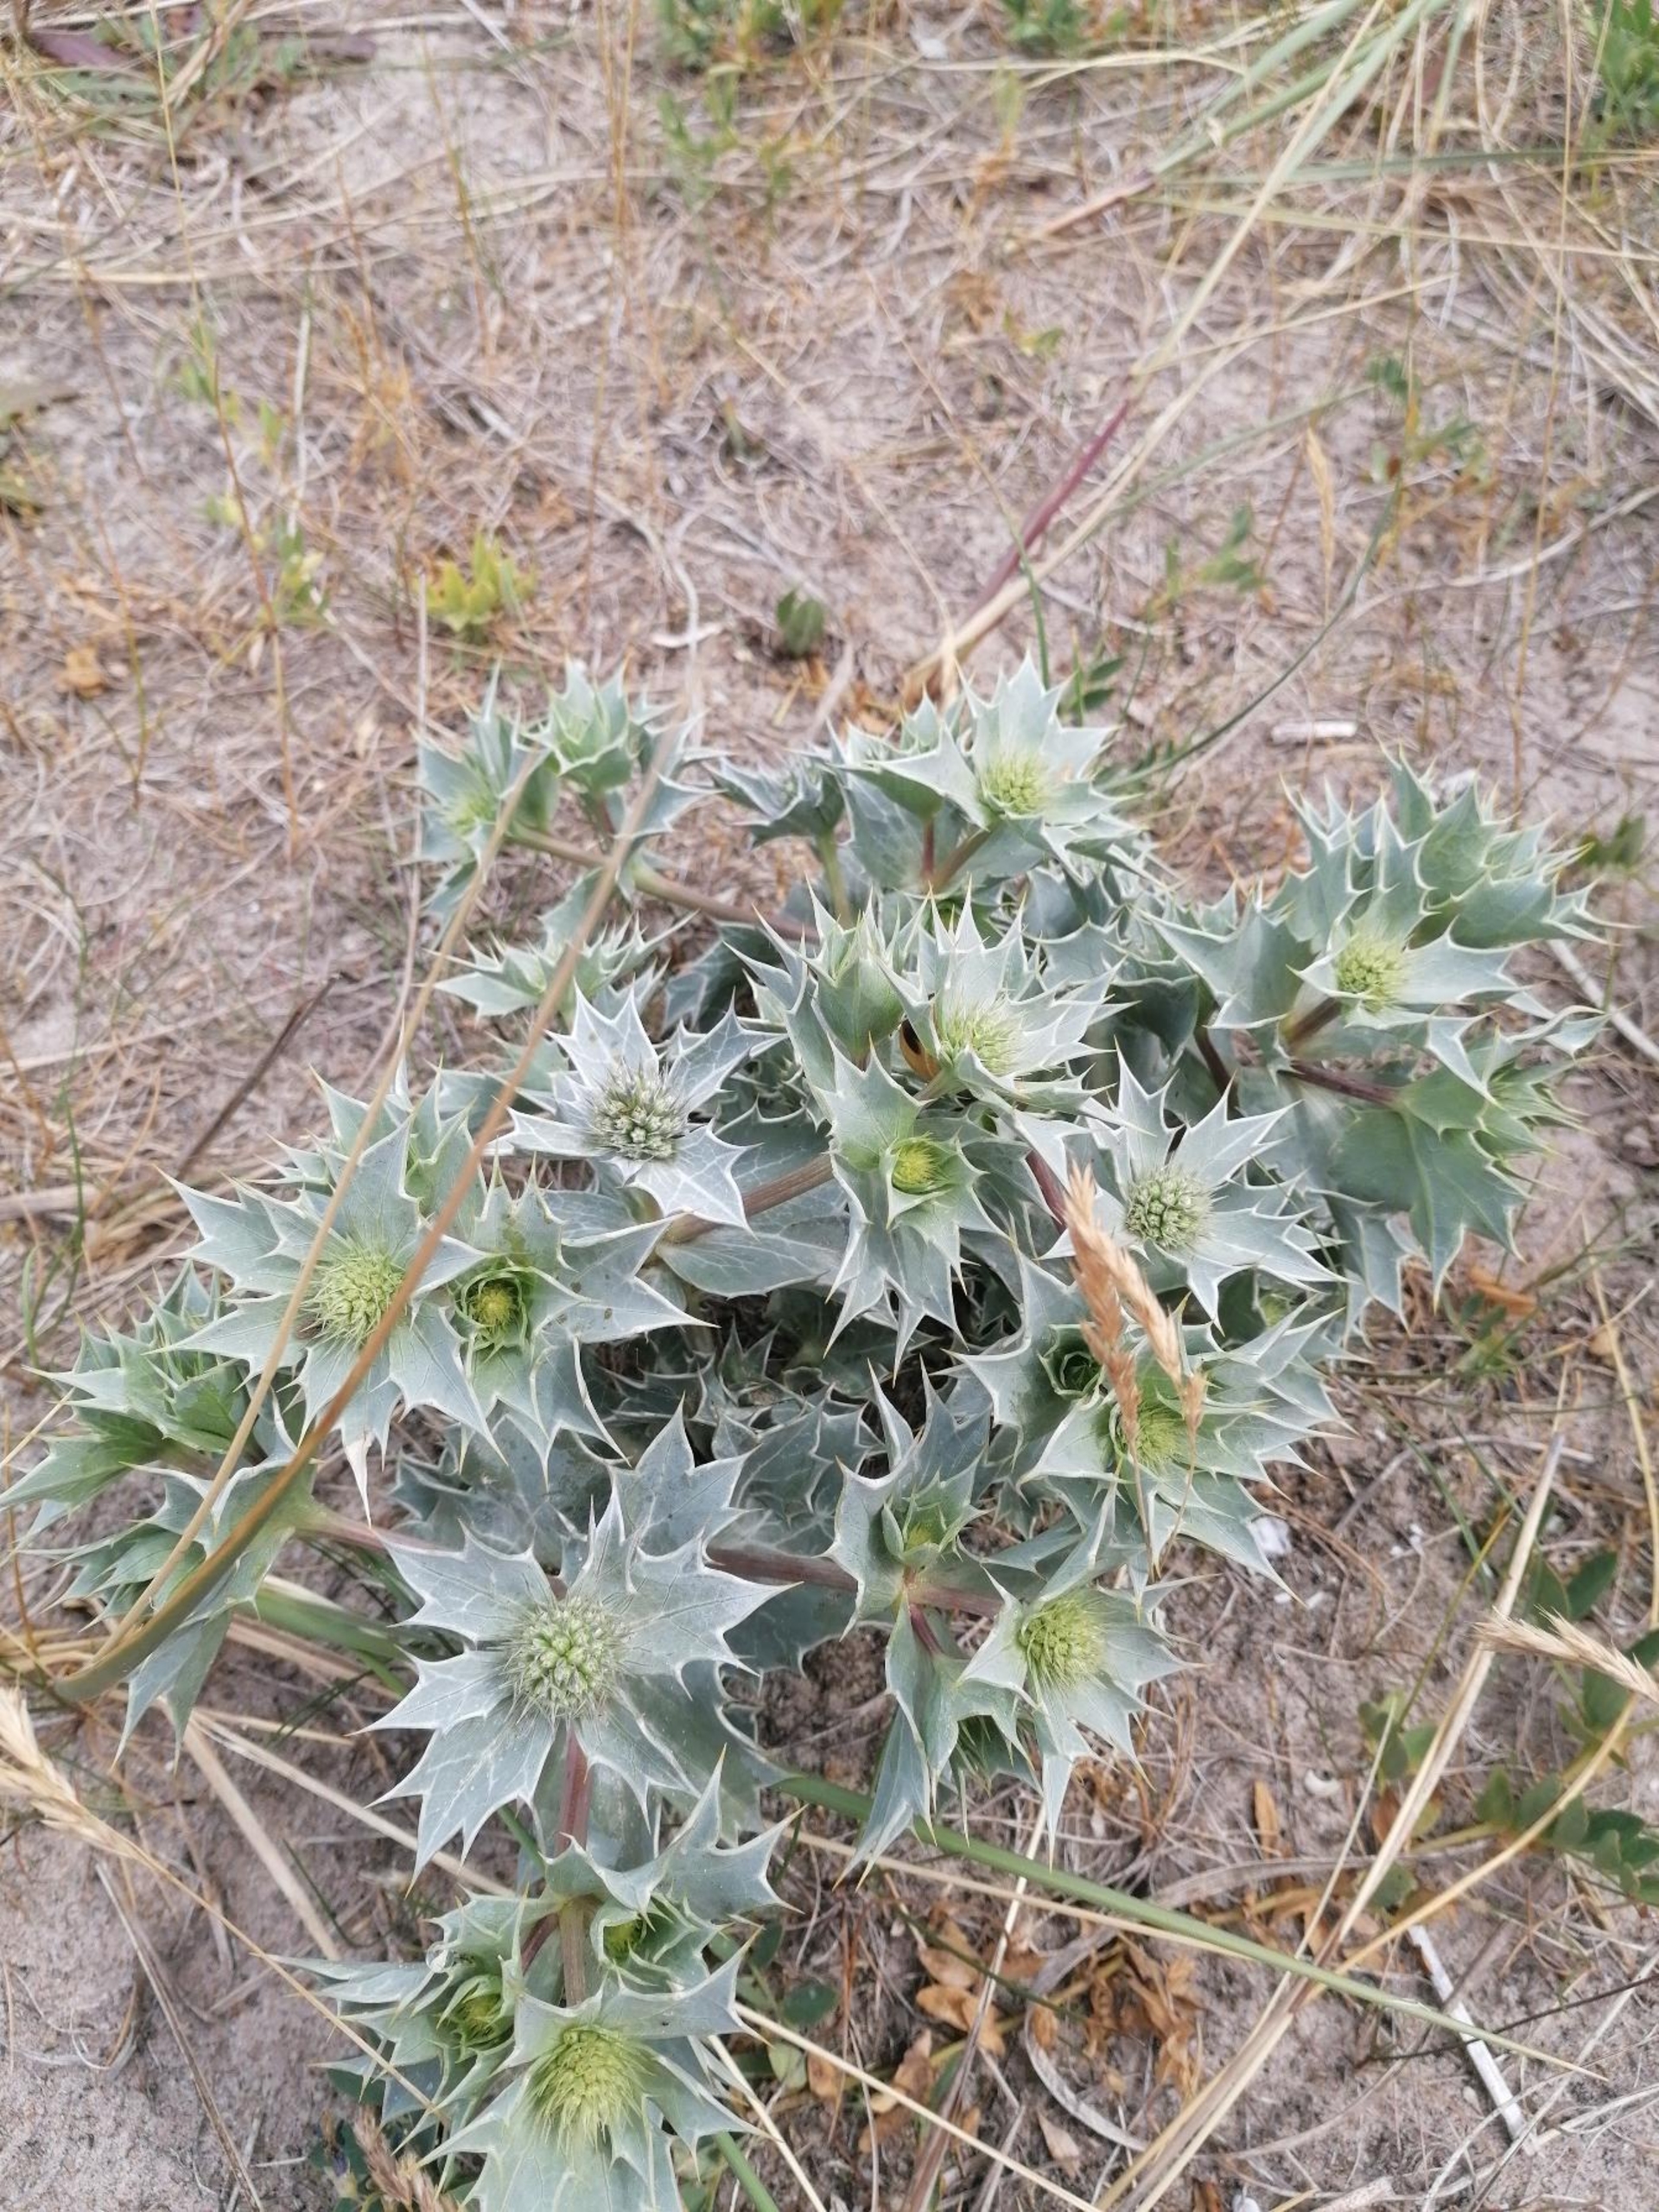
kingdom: Plantae
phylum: Tracheophyta
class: Magnoliopsida
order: Apiales
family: Apiaceae
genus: Eryngium
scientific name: Eryngium maritimum
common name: Strand-mandstro
